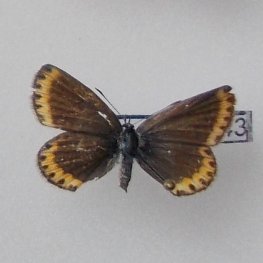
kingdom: Animalia
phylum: Arthropoda
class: Insecta
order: Lepidoptera
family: Lycaenidae
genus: Lycaeides
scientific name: Lycaeides melissa
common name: Melissa Blue
